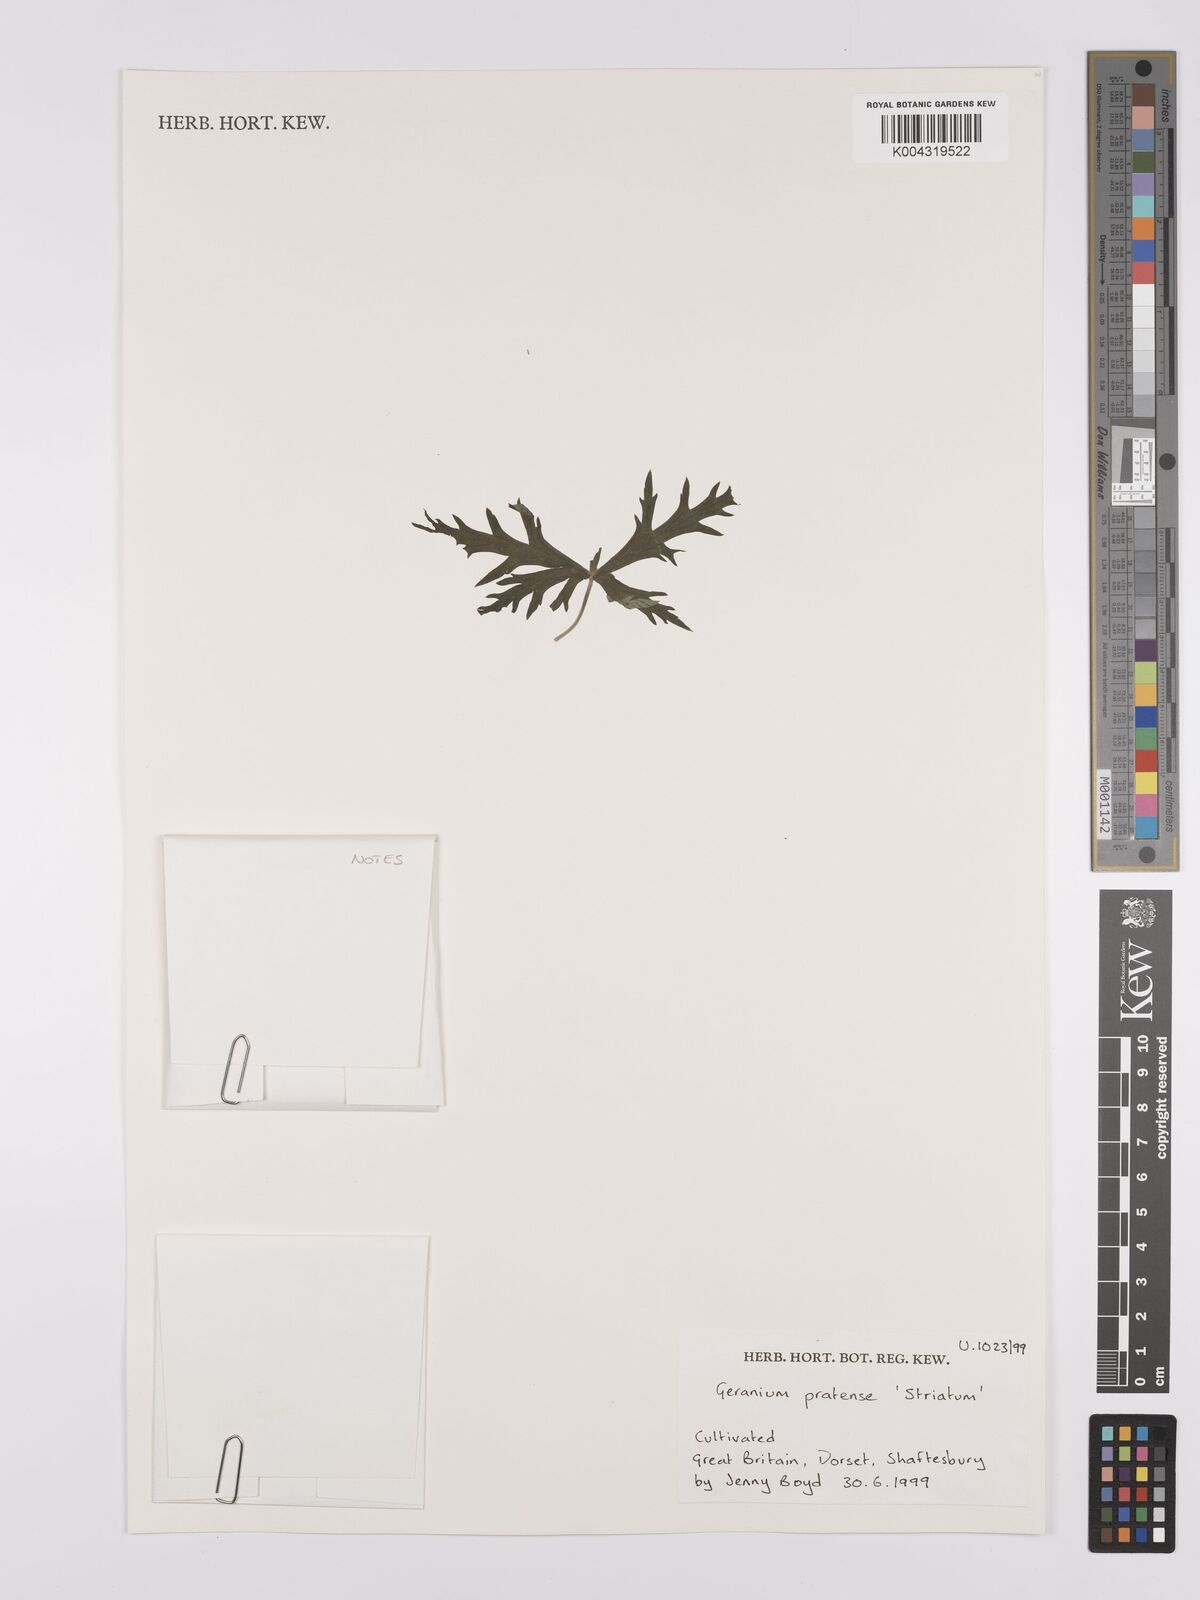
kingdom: Plantae
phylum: Tracheophyta
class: Magnoliopsida
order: Geraniales
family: Geraniaceae
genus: Geranium
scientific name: Geranium pratense
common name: Meadow crane's-bill
